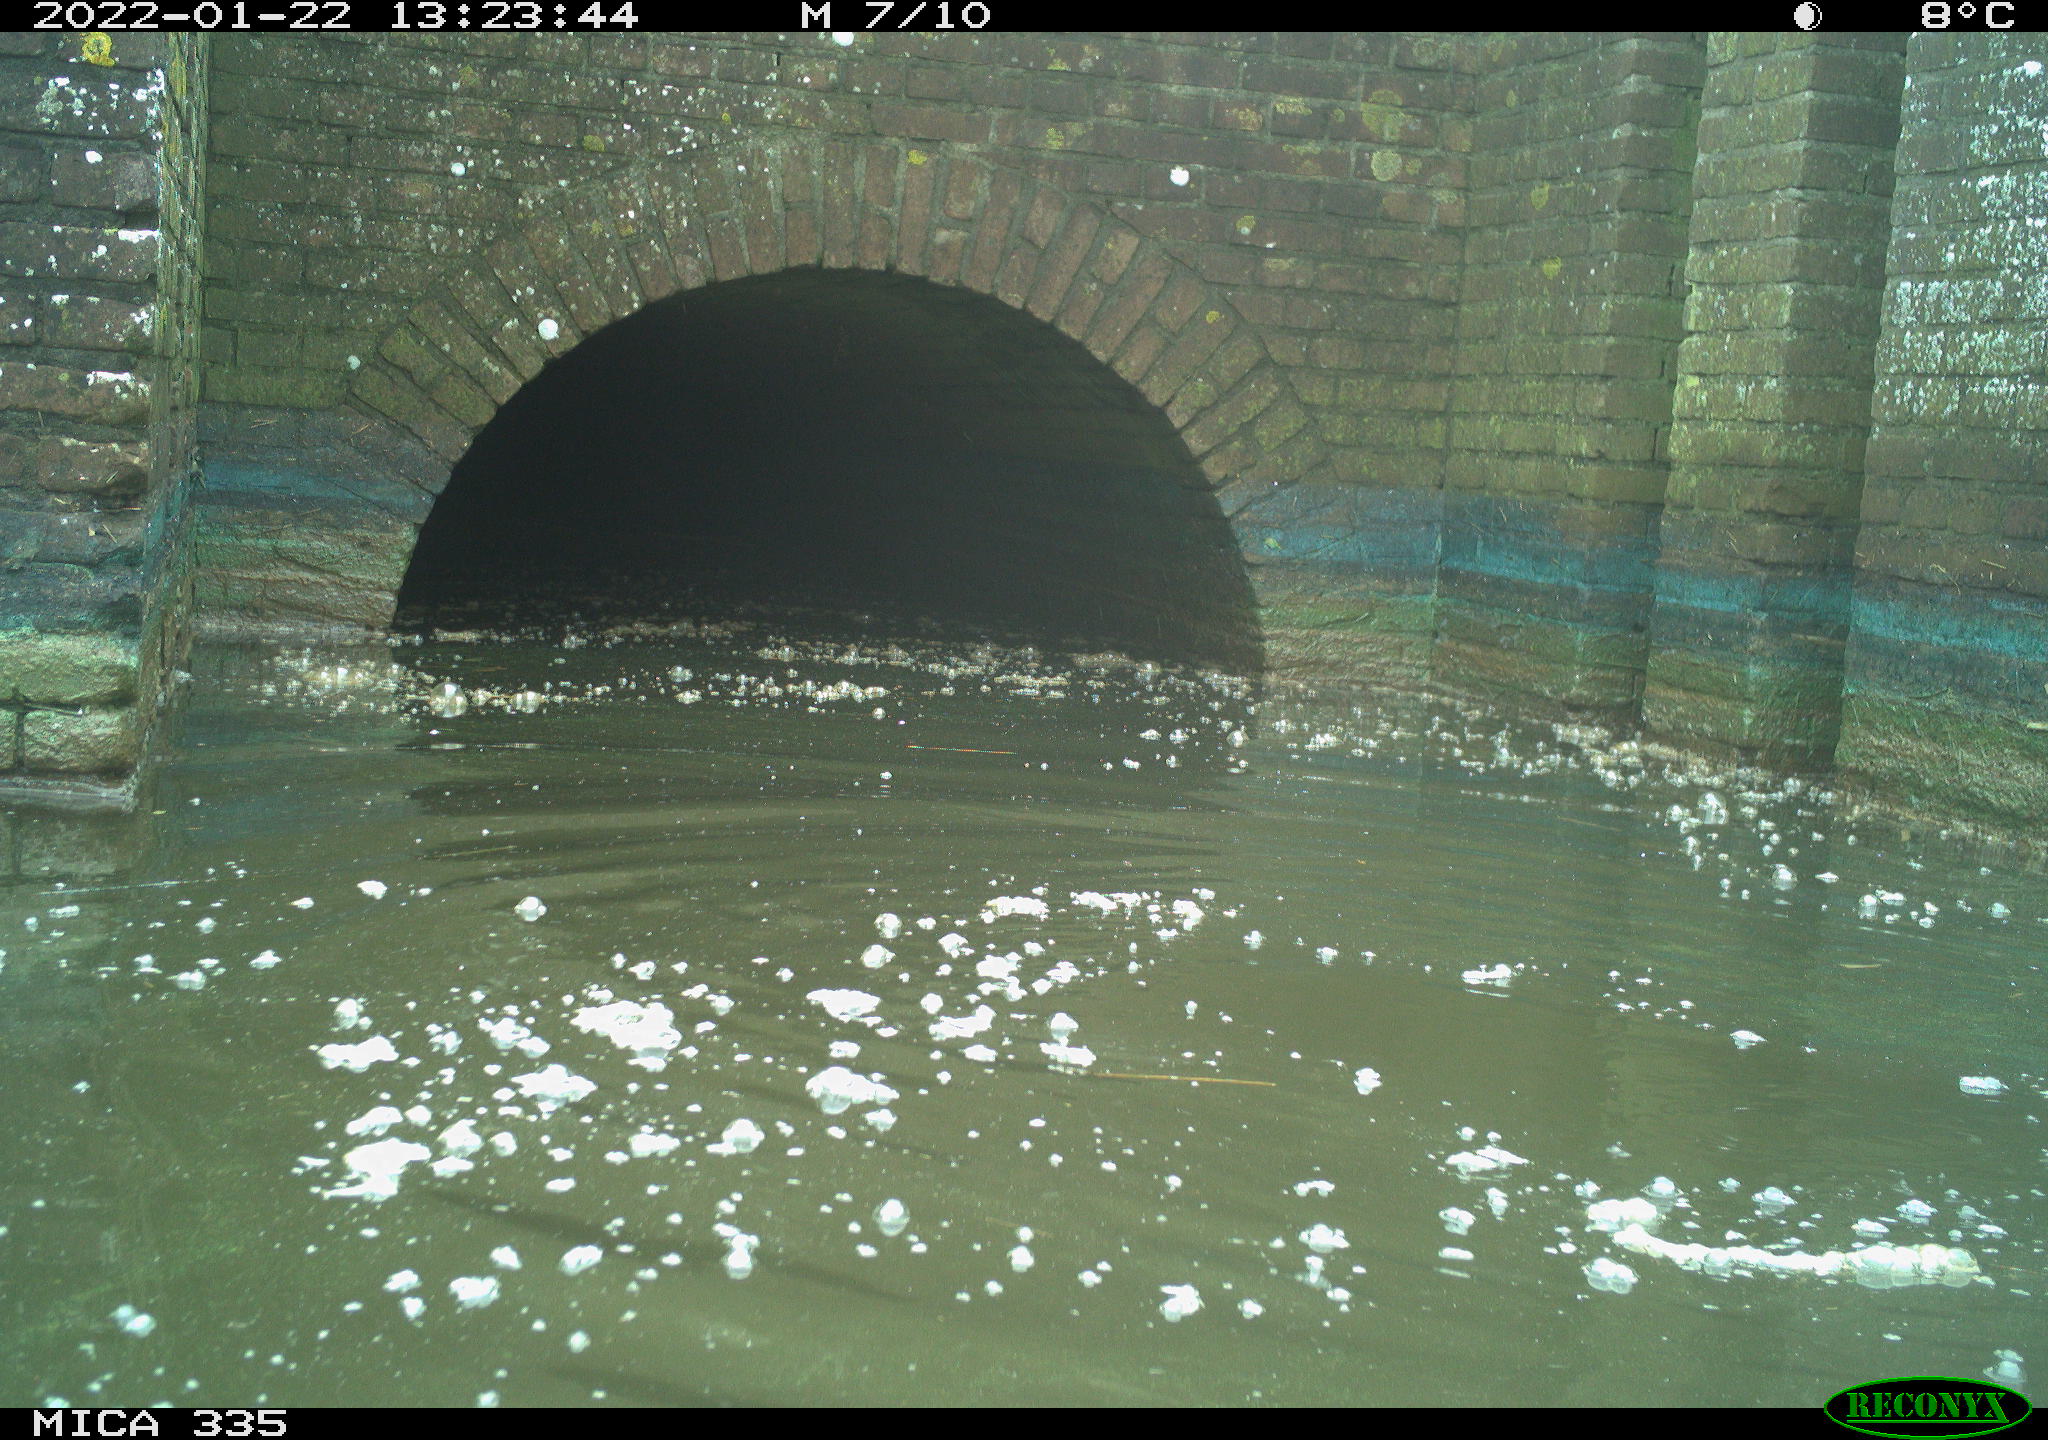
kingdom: Animalia
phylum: Chordata
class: Aves
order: Suliformes
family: Phalacrocoracidae
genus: Phalacrocorax
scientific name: Phalacrocorax carbo
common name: Great cormorant
